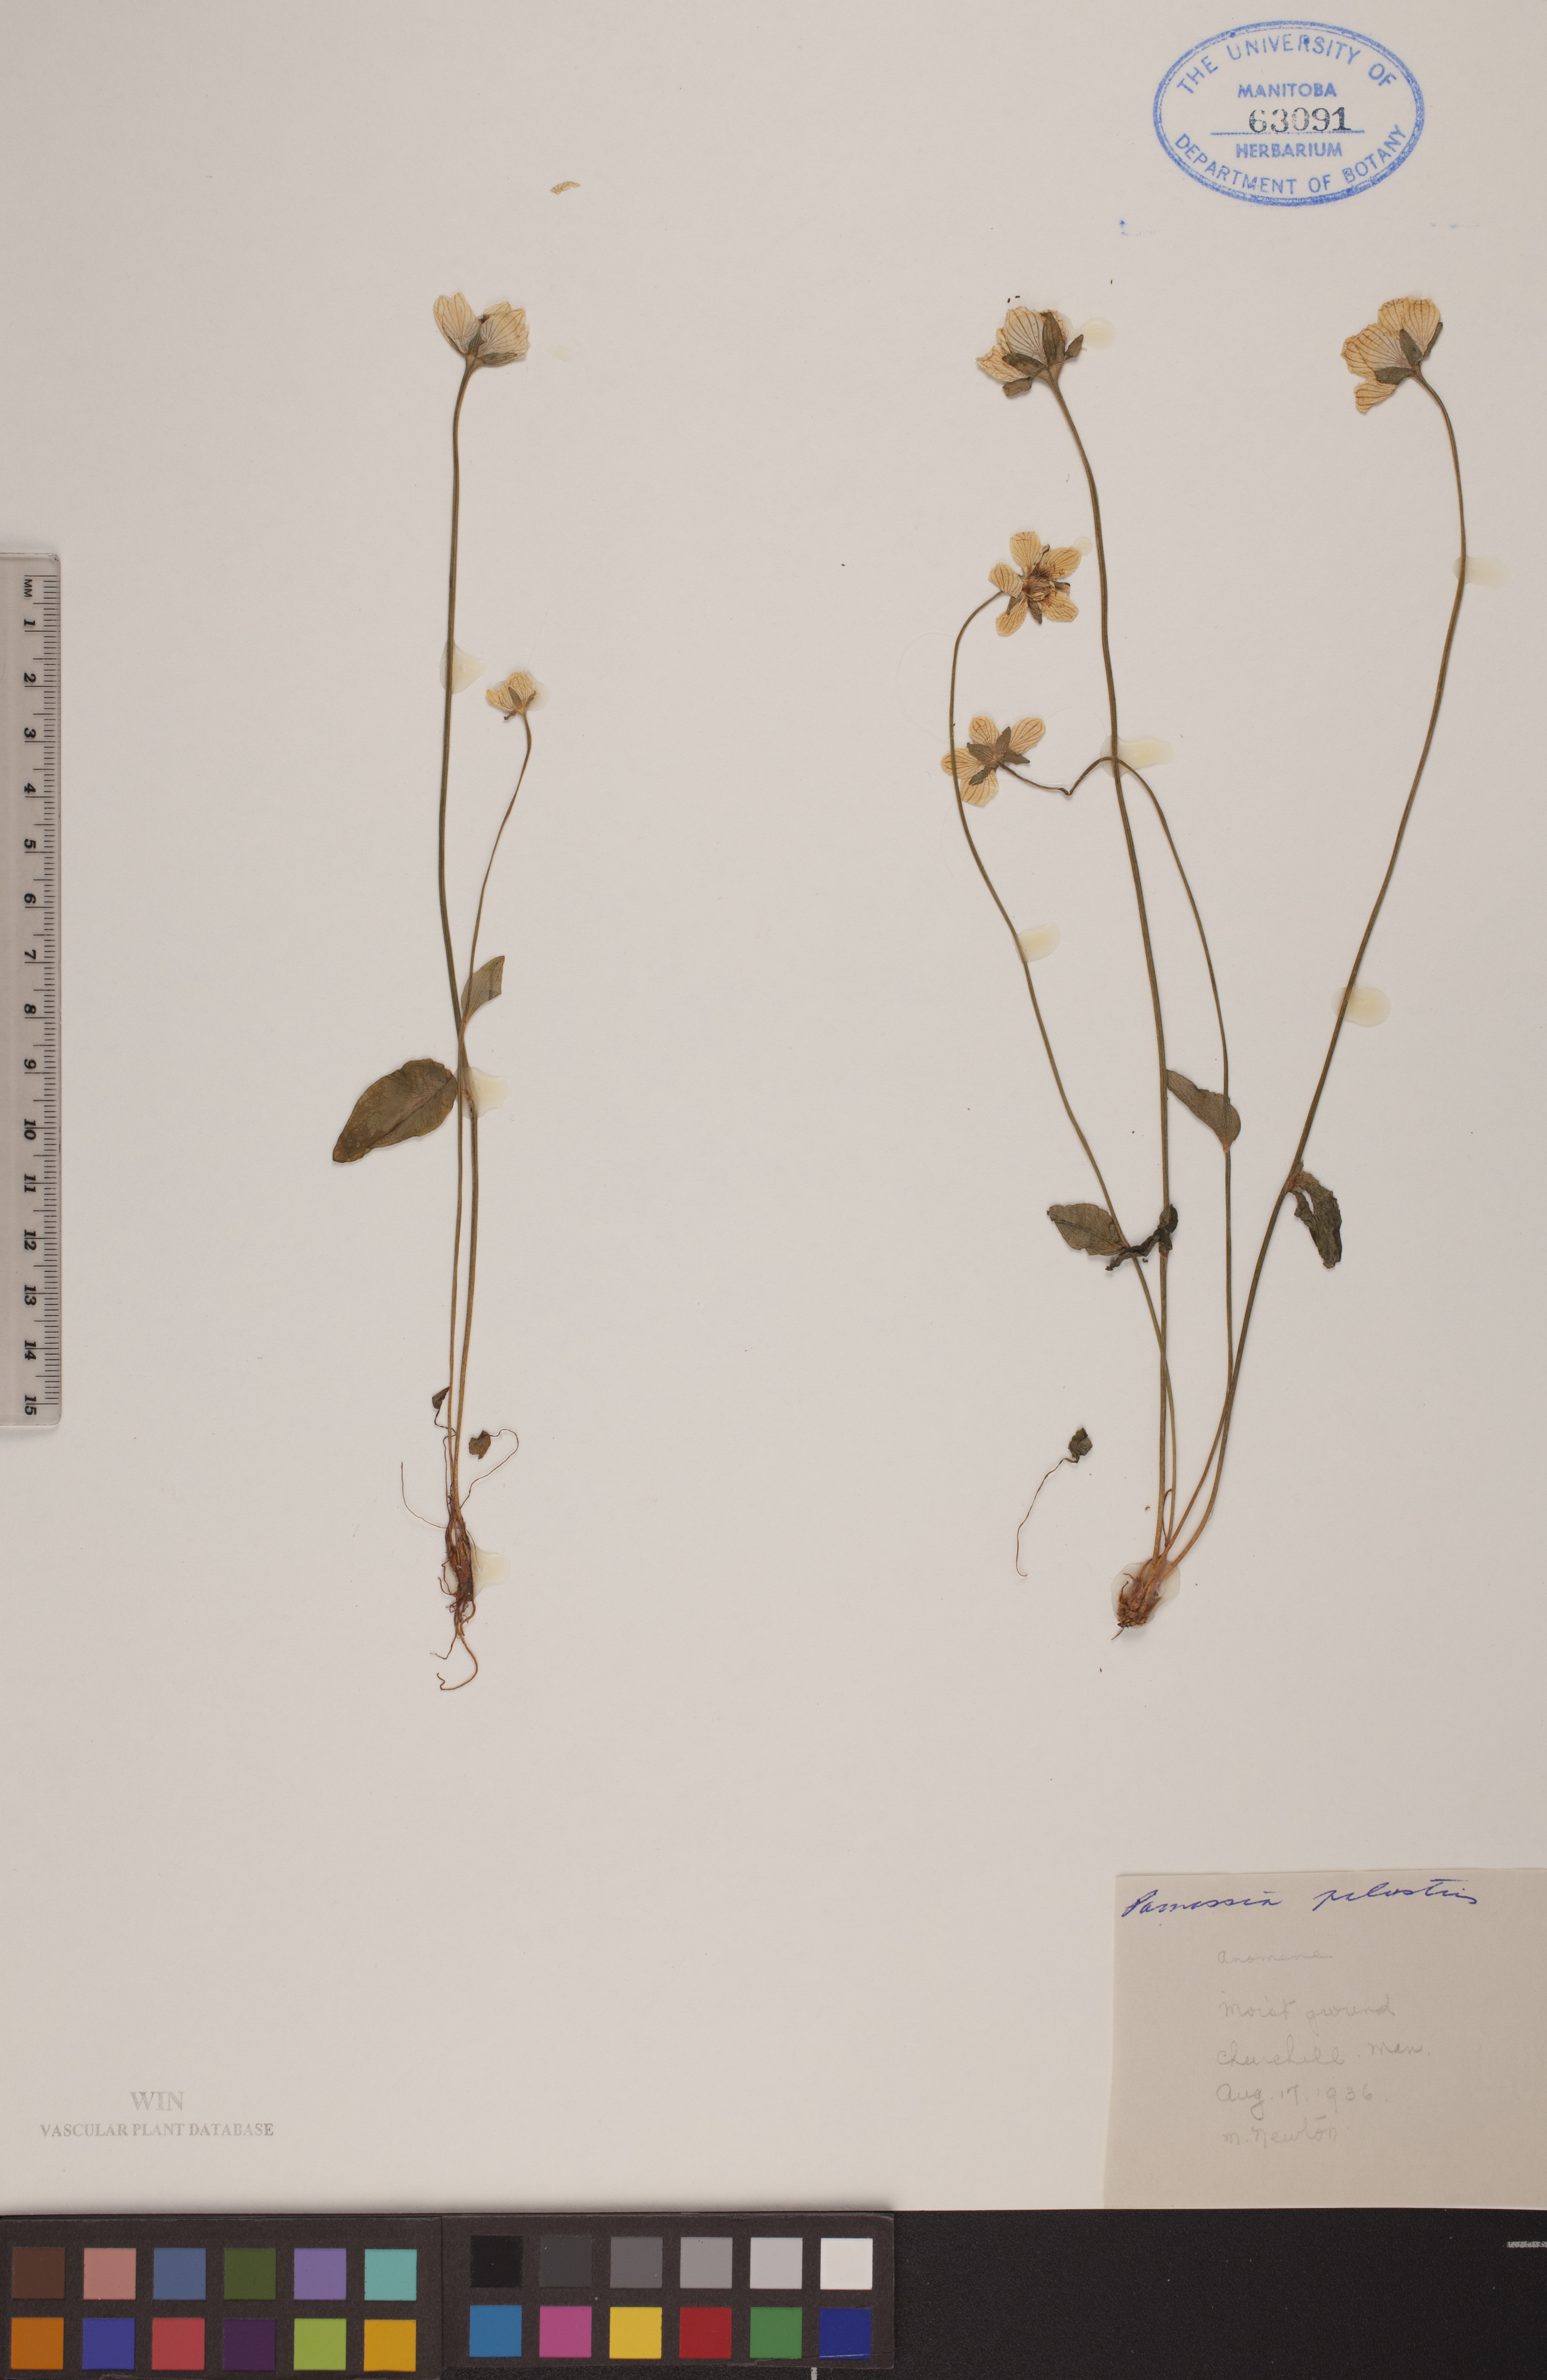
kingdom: Plantae
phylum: Tracheophyta
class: Magnoliopsida
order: Celastrales
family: Parnassiaceae
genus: Parnassia
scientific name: Parnassia palustris
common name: Grass-of-parnassus
